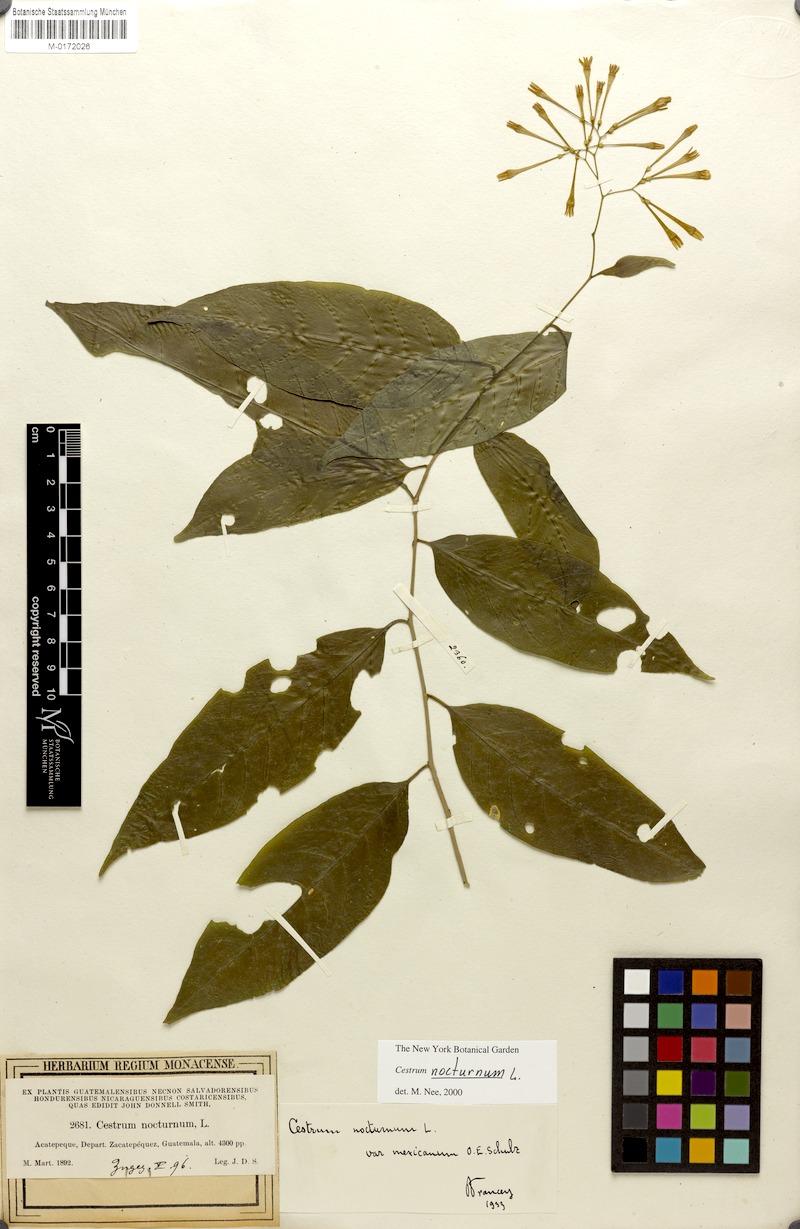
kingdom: Plantae
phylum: Tracheophyta
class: Magnoliopsida
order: Solanales
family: Solanaceae
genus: Cestrum
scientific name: Cestrum nocturnum
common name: Night jessamine
